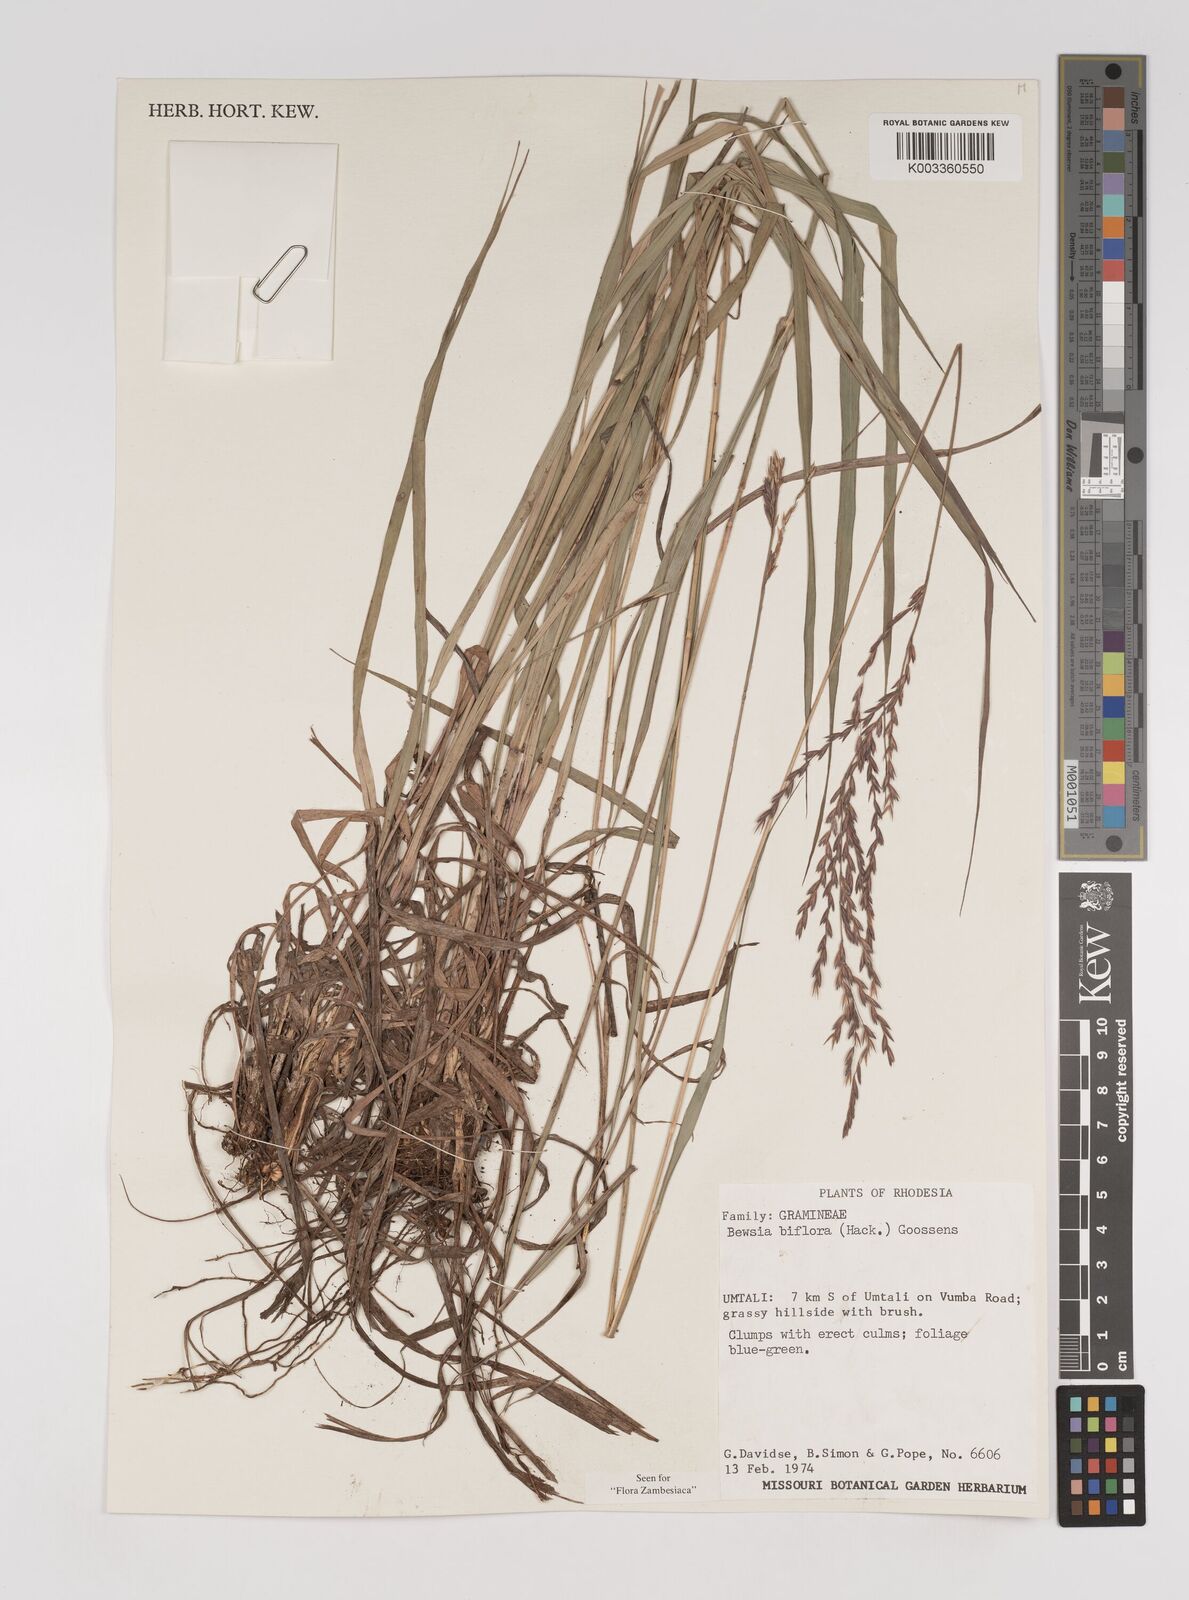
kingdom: Plantae
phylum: Tracheophyta
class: Liliopsida
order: Poales
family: Poaceae
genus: Bewsia
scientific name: Bewsia biflora
